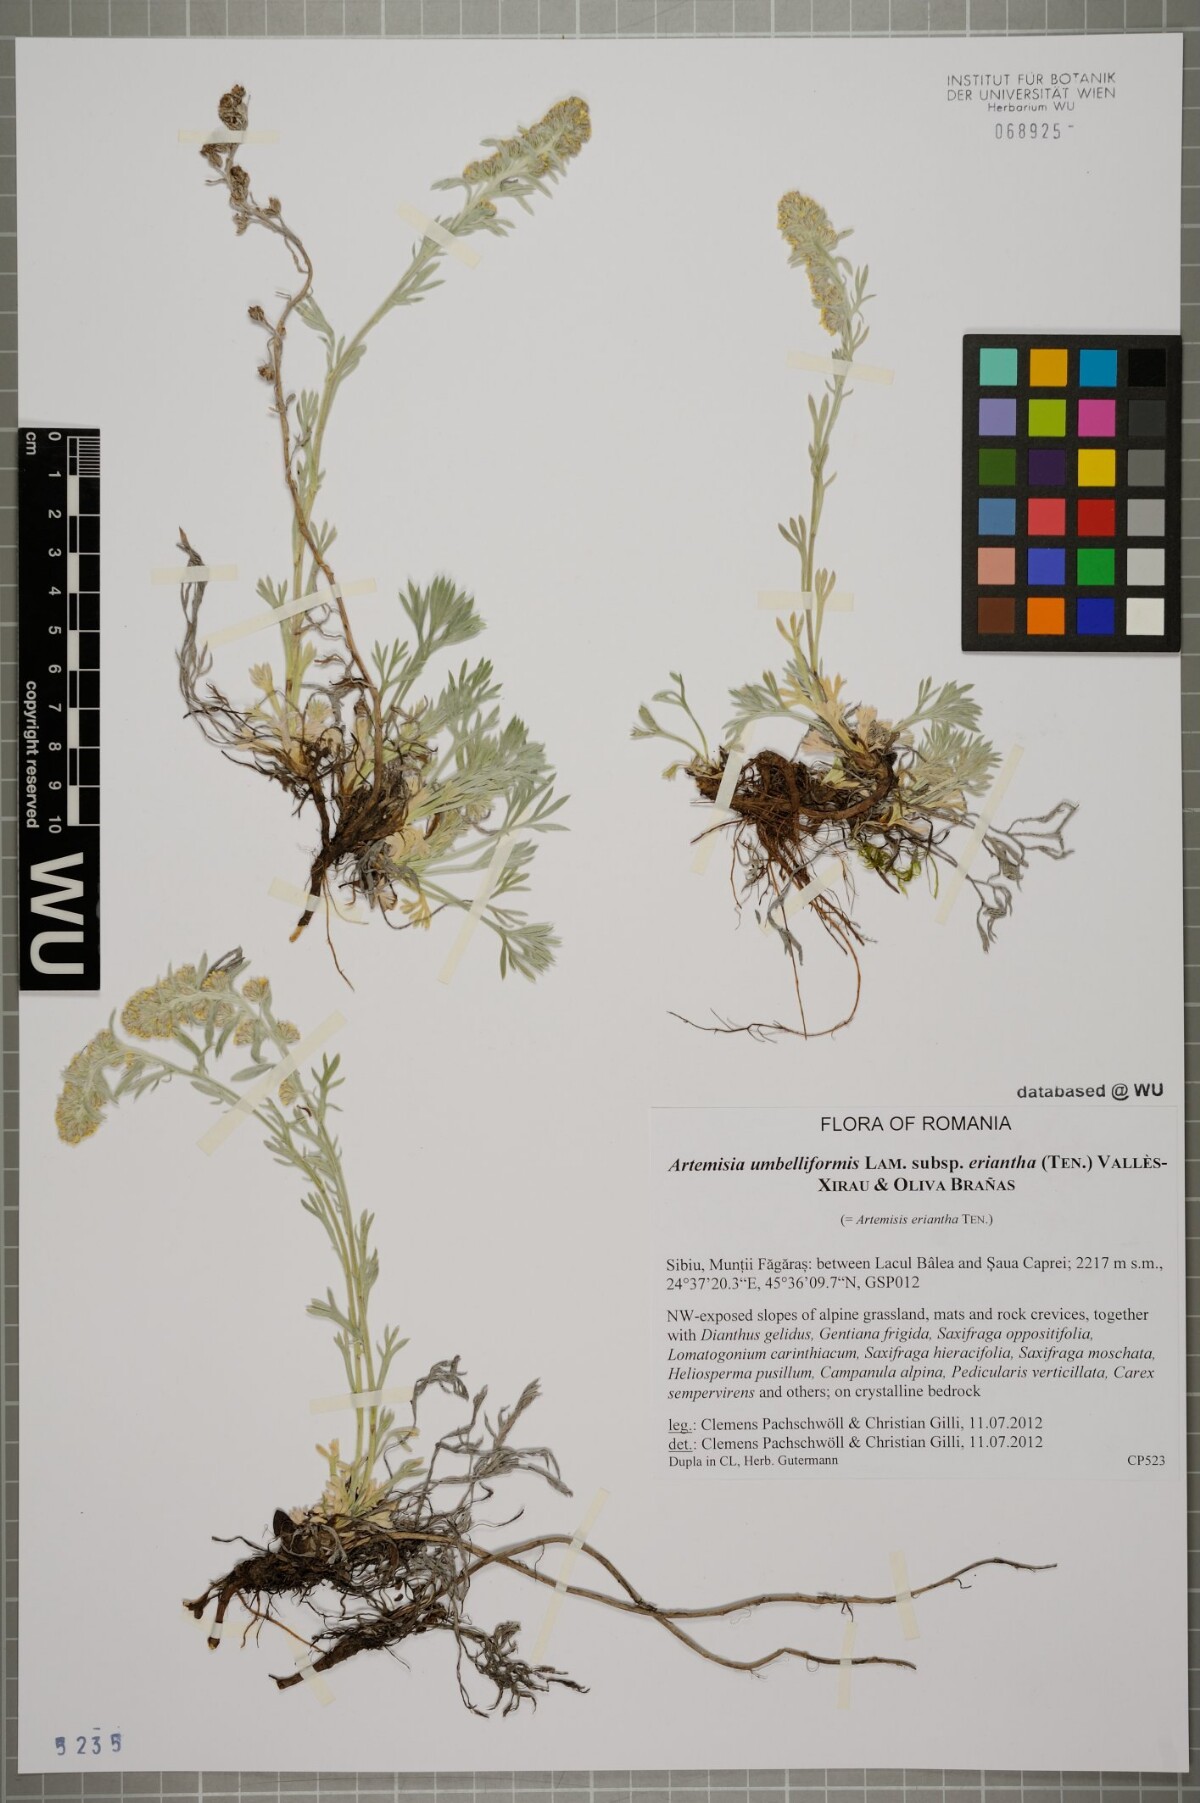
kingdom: Plantae
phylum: Tracheophyta
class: Magnoliopsida
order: Asterales
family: Asteraceae
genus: Artemisia
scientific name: Artemisia eriantha
